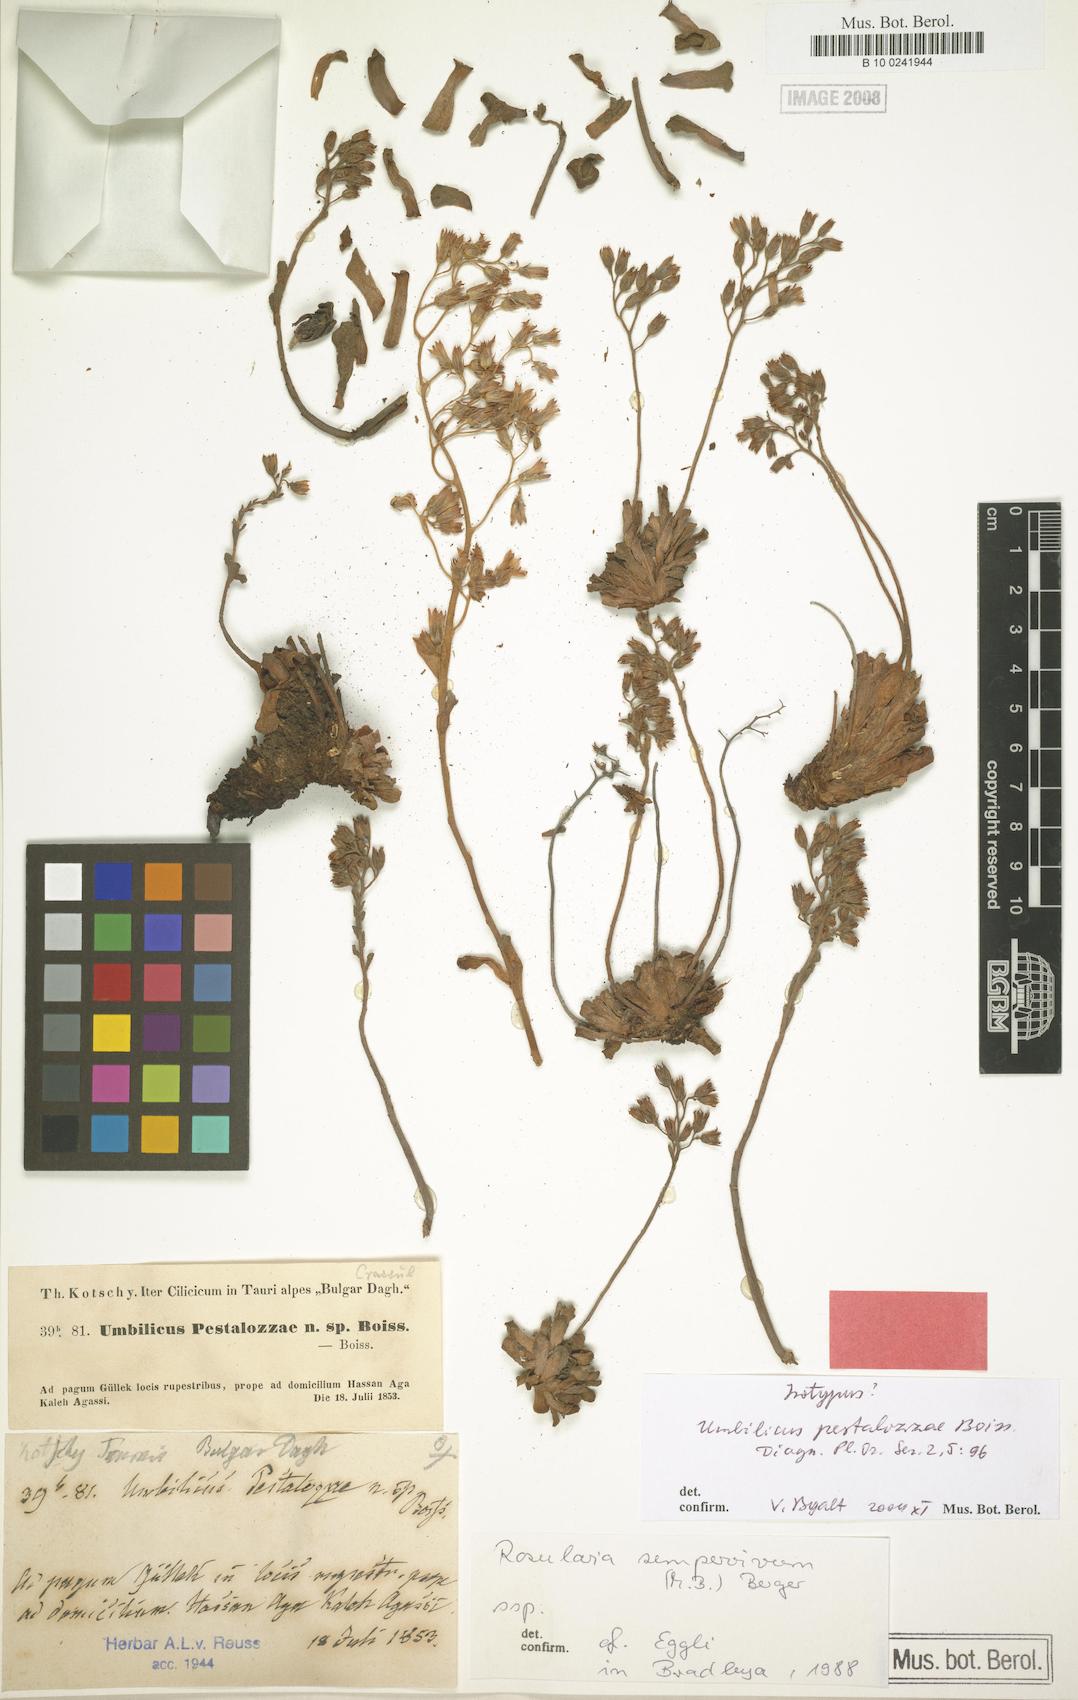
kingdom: Plantae
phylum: Tracheophyta
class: Magnoliopsida
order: Saxifragales
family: Crassulaceae
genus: Rosularia
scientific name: Rosularia sempervivum
